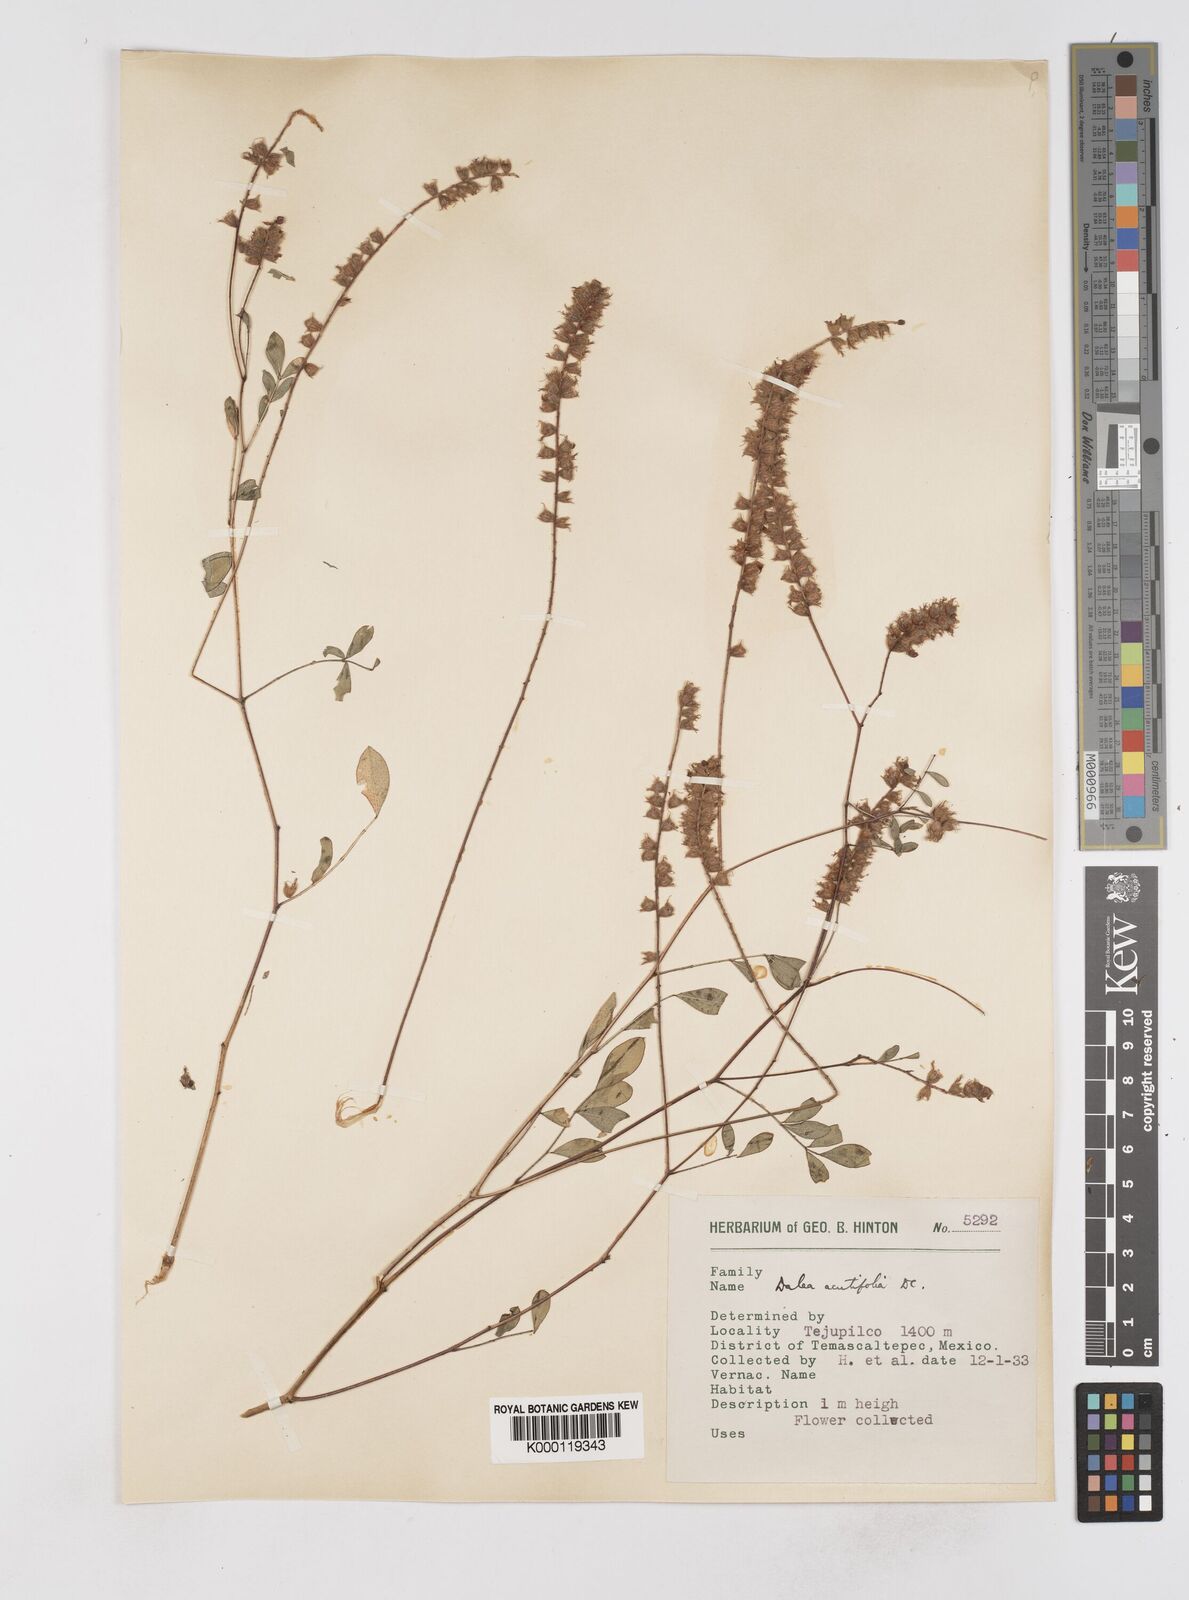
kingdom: Plantae
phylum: Tracheophyta
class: Magnoliopsida
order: Fabales
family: Fabaceae
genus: Dalea
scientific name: Dalea cliffortiana
